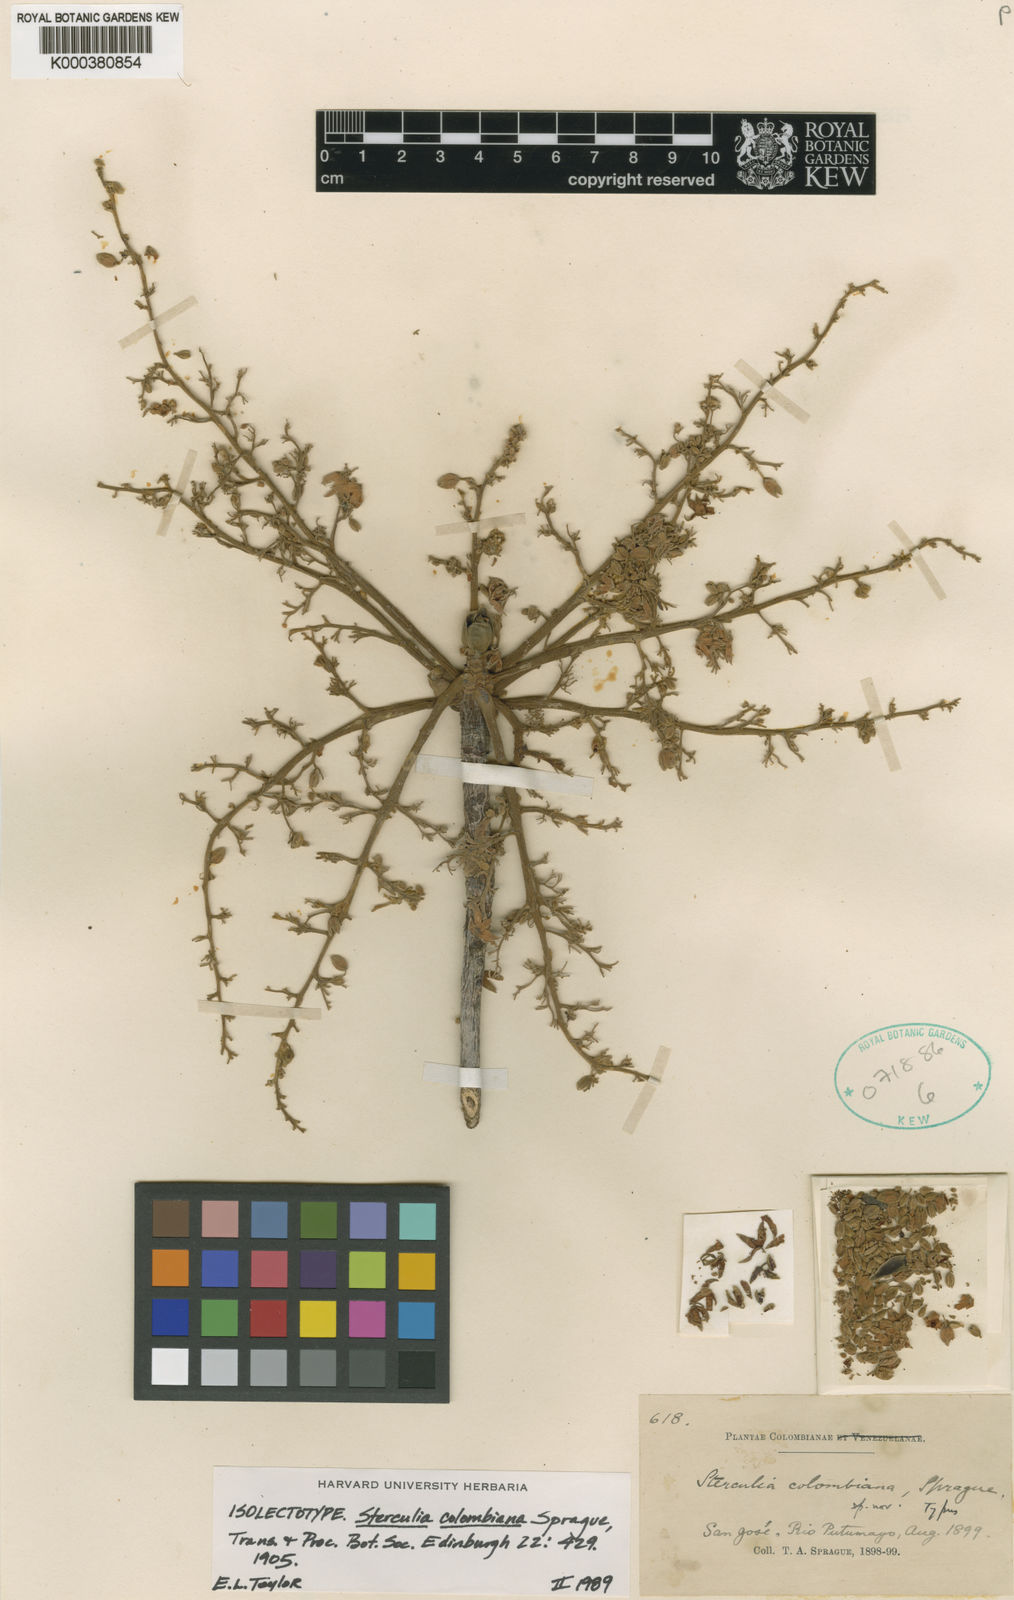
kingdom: Plantae
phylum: Tracheophyta
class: Magnoliopsida
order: Malvales
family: Malvaceae
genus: Sterculia
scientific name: Sterculia colombiana
